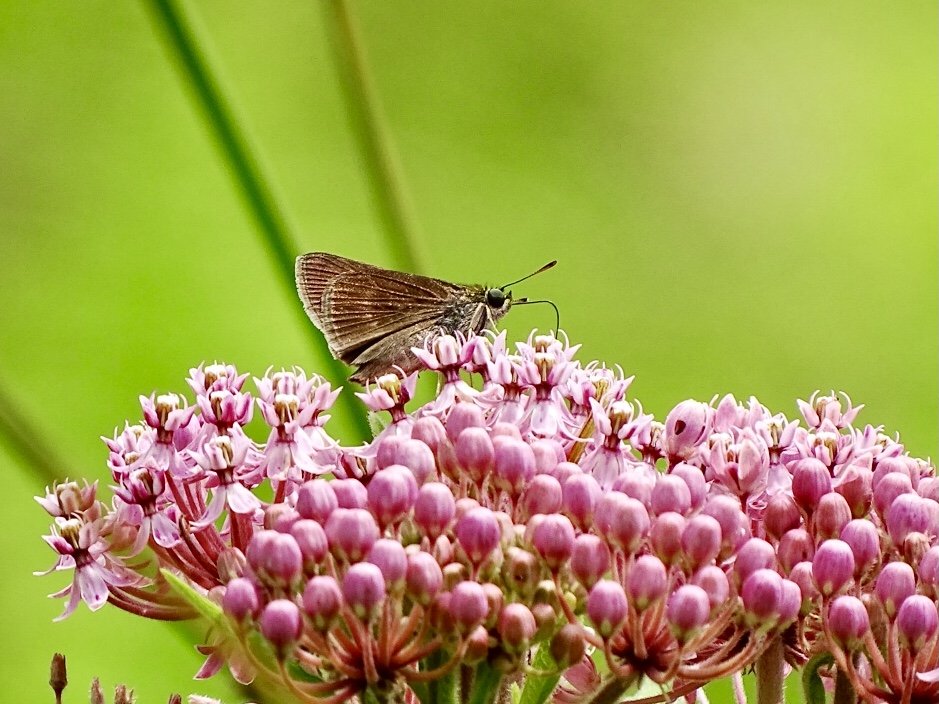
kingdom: Animalia
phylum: Arthropoda
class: Insecta
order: Lepidoptera
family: Hesperiidae
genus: Euphyes
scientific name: Euphyes vestris
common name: Dun Skipper
